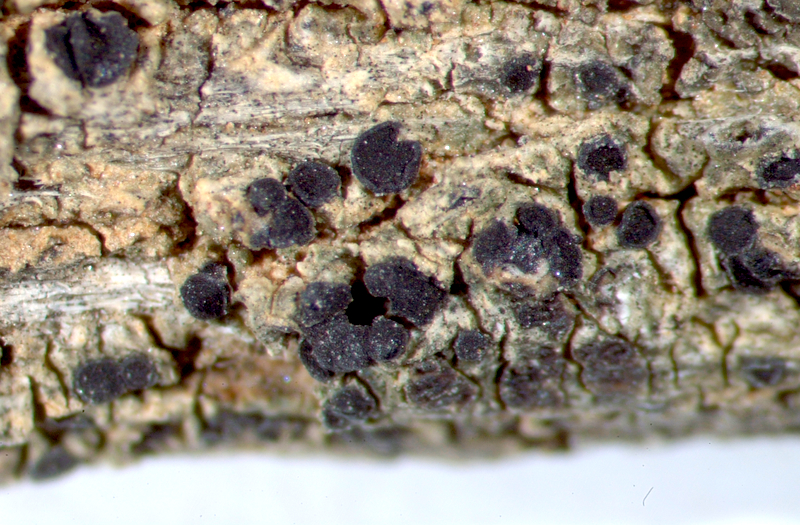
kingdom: Fungi
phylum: Ascomycota
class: Lecanoromycetes
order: Caliciales
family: Caliciaceae
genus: Buellia
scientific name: Buellia
